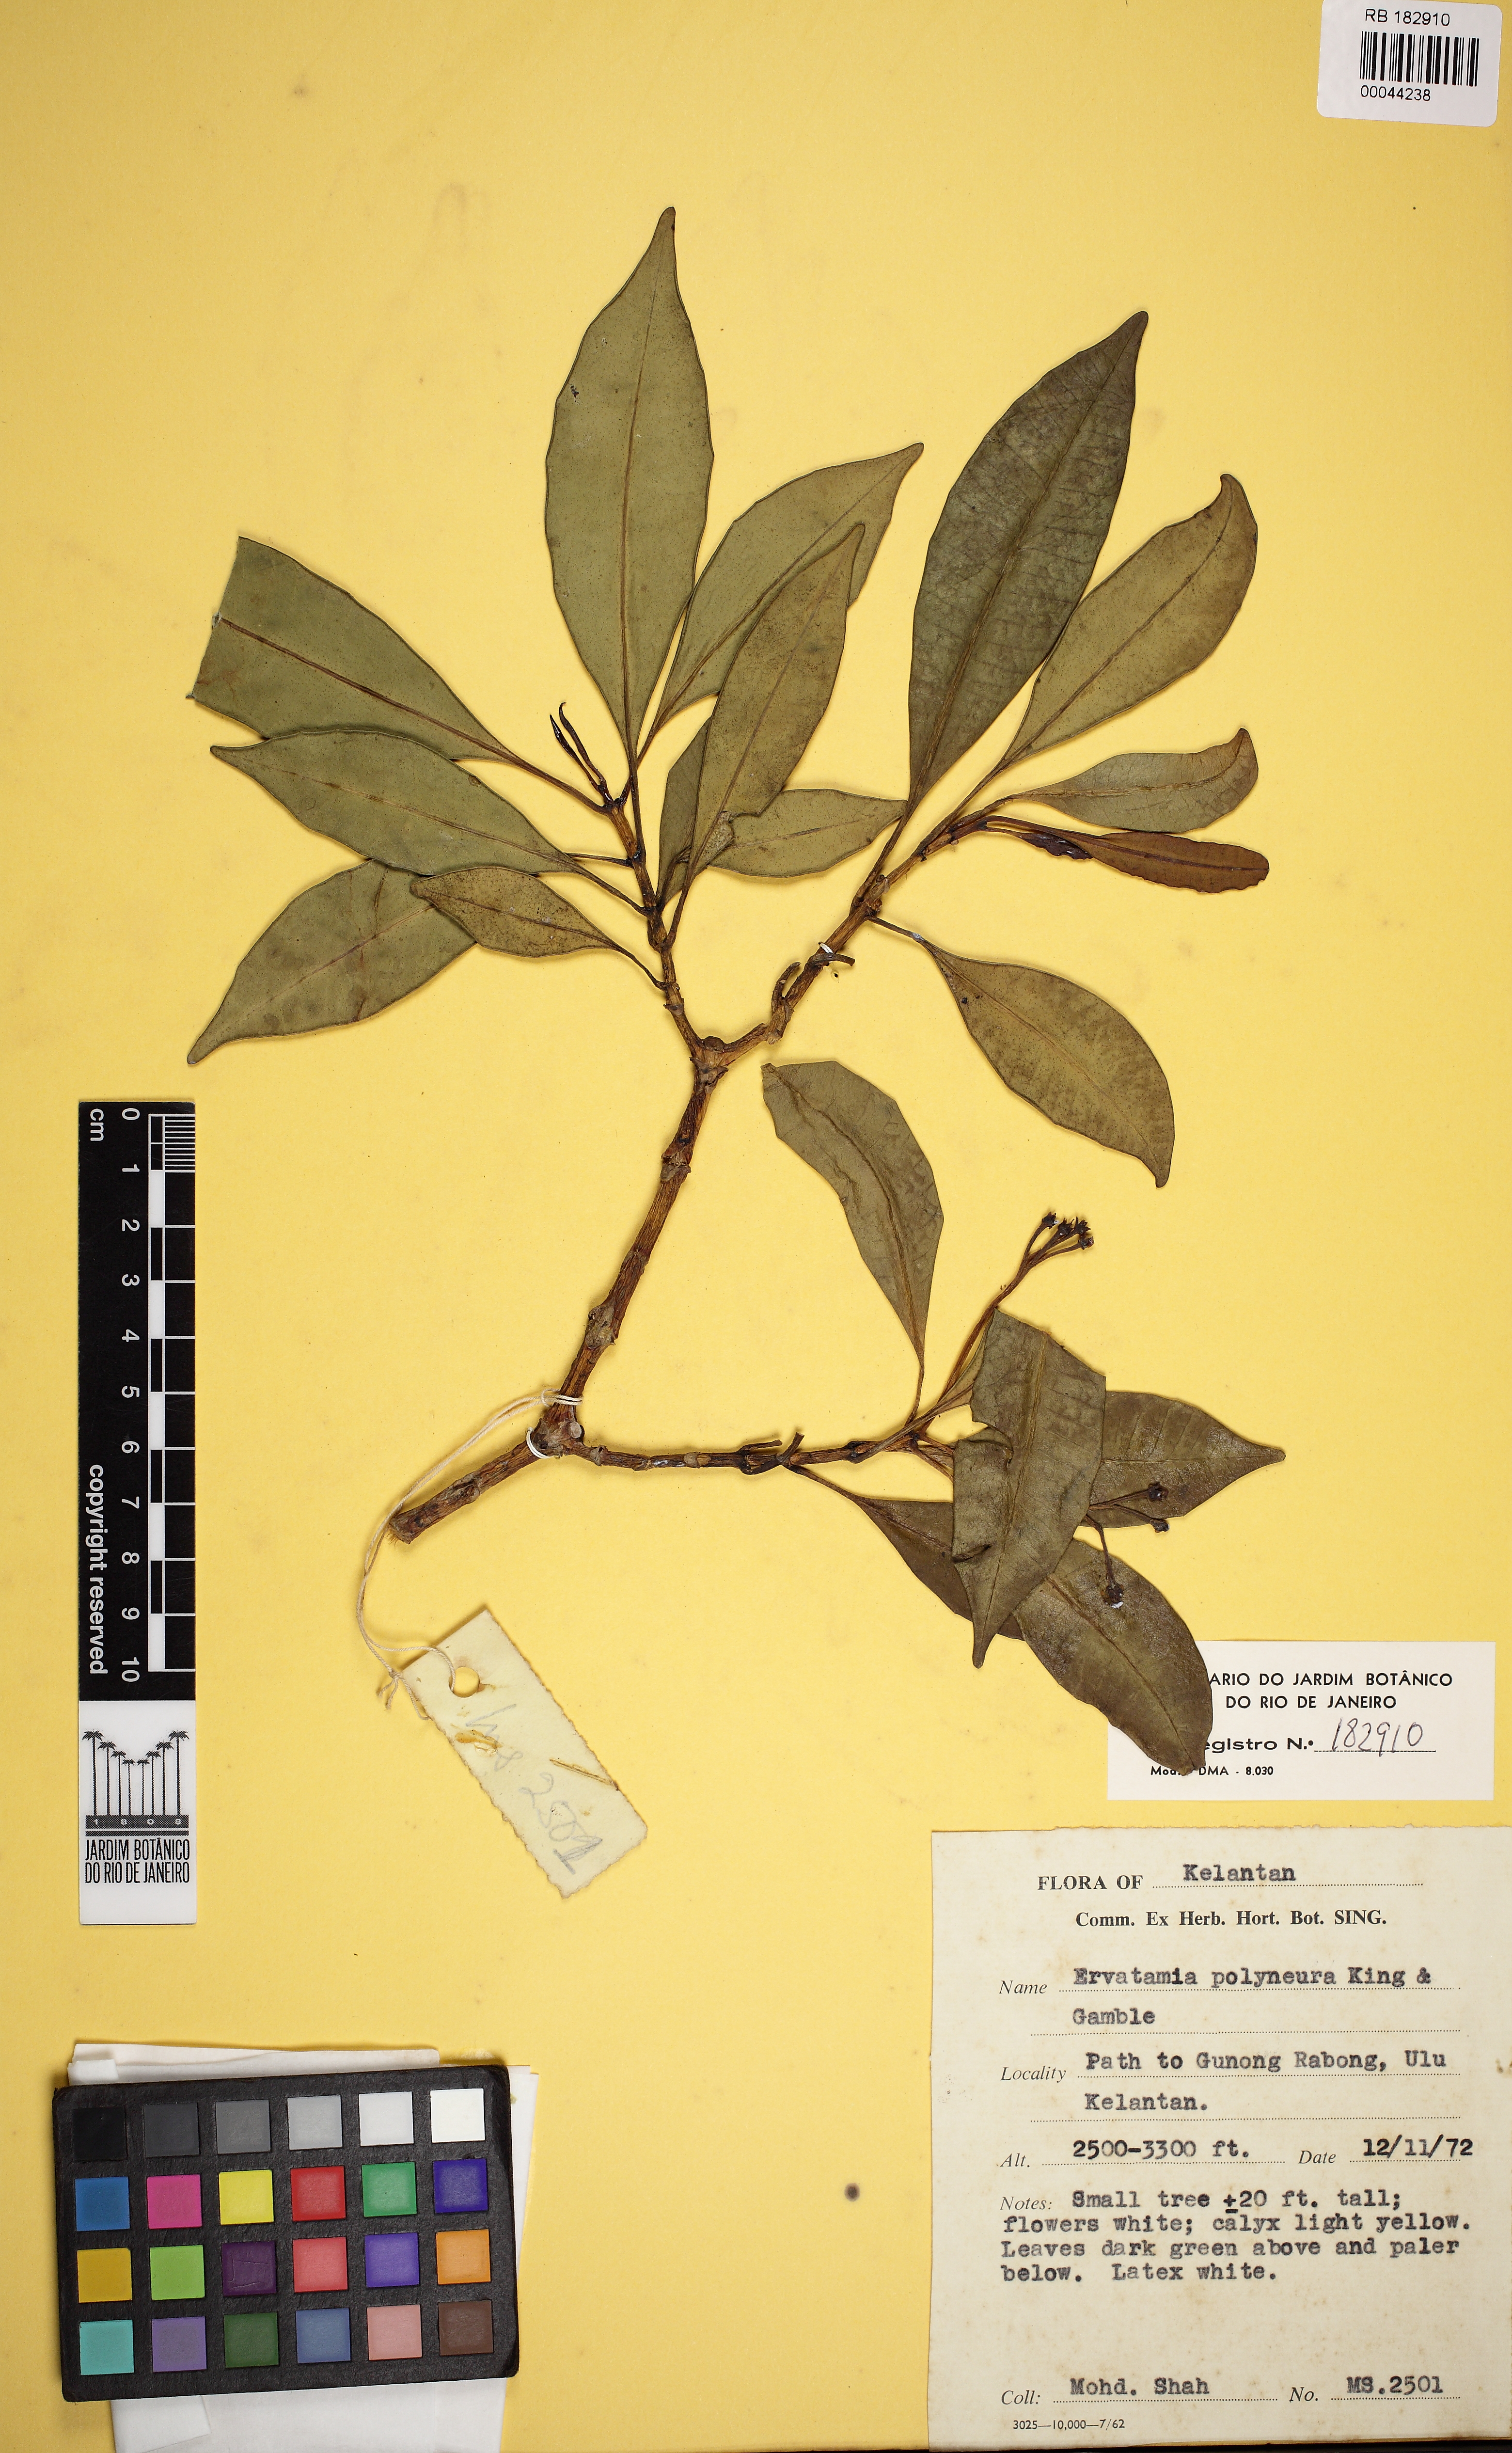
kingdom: Plantae
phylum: Tracheophyta
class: Magnoliopsida
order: Gentianales
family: Apocynaceae
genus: Tabernaemontana
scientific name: Tabernaemontana polyneura
